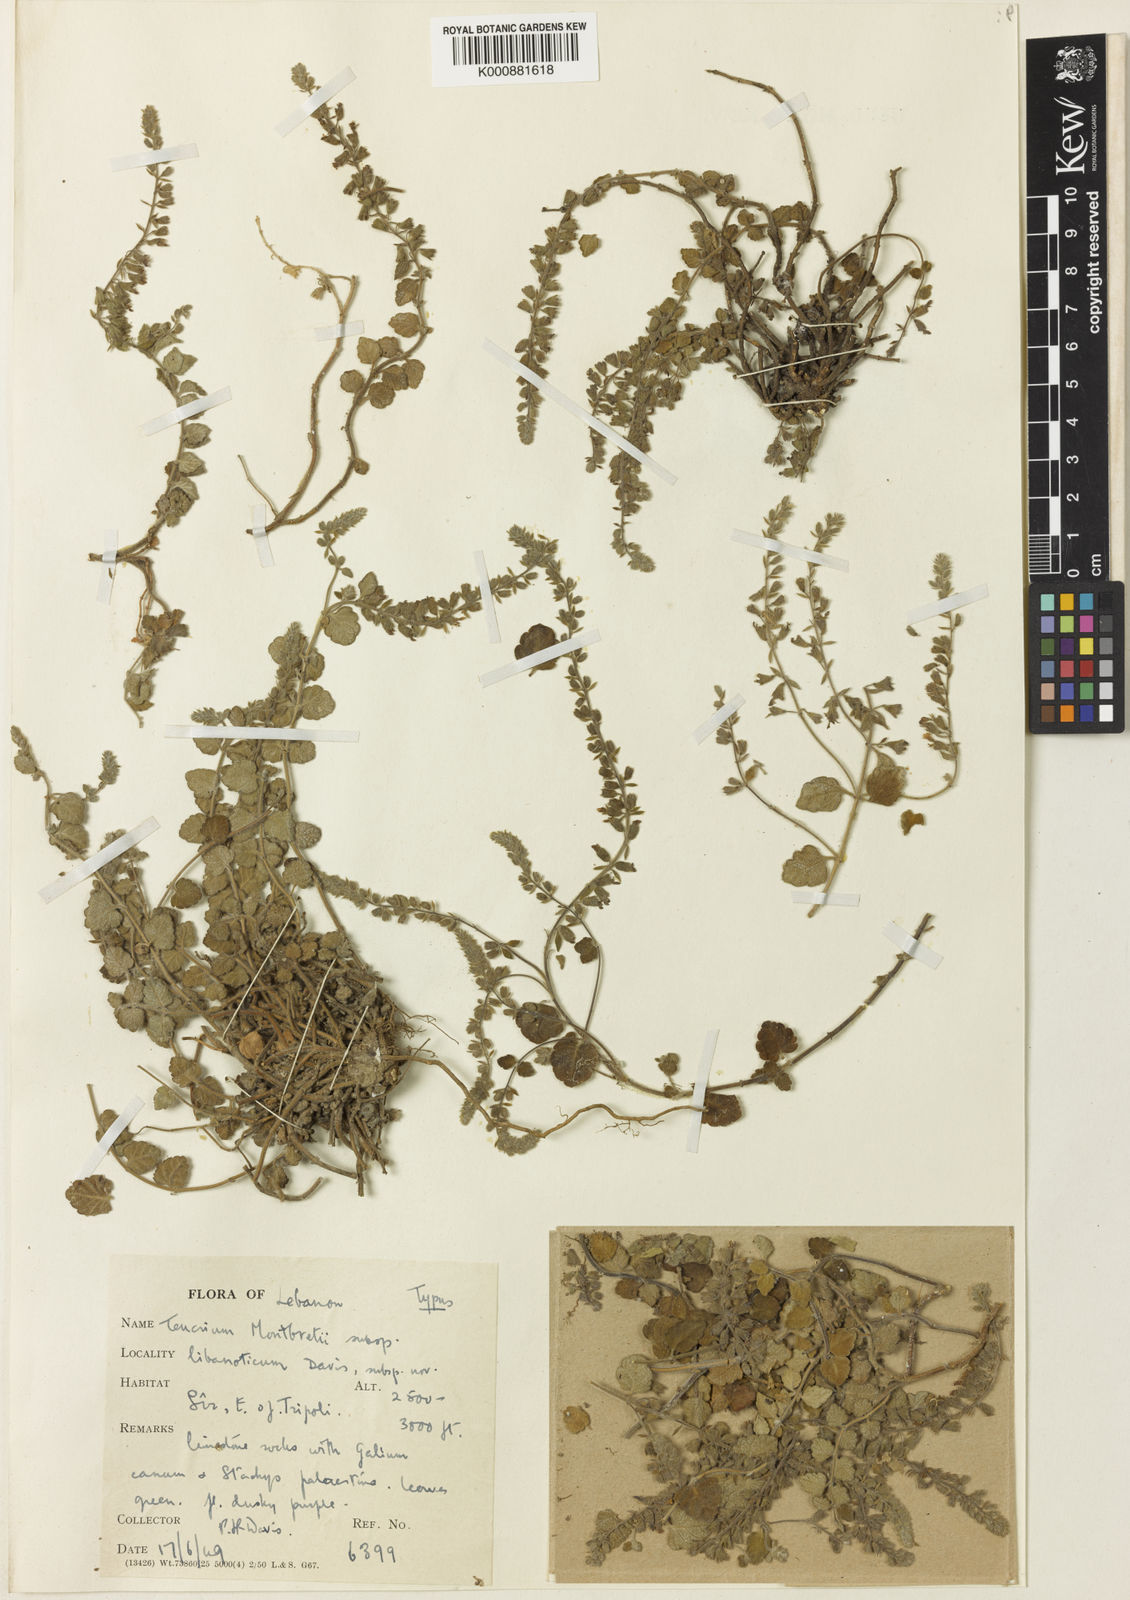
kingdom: Plantae
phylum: Tracheophyta
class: Magnoliopsida
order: Lamiales
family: Lamiaceae
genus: Teucrium
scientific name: Teucrium montbretii
